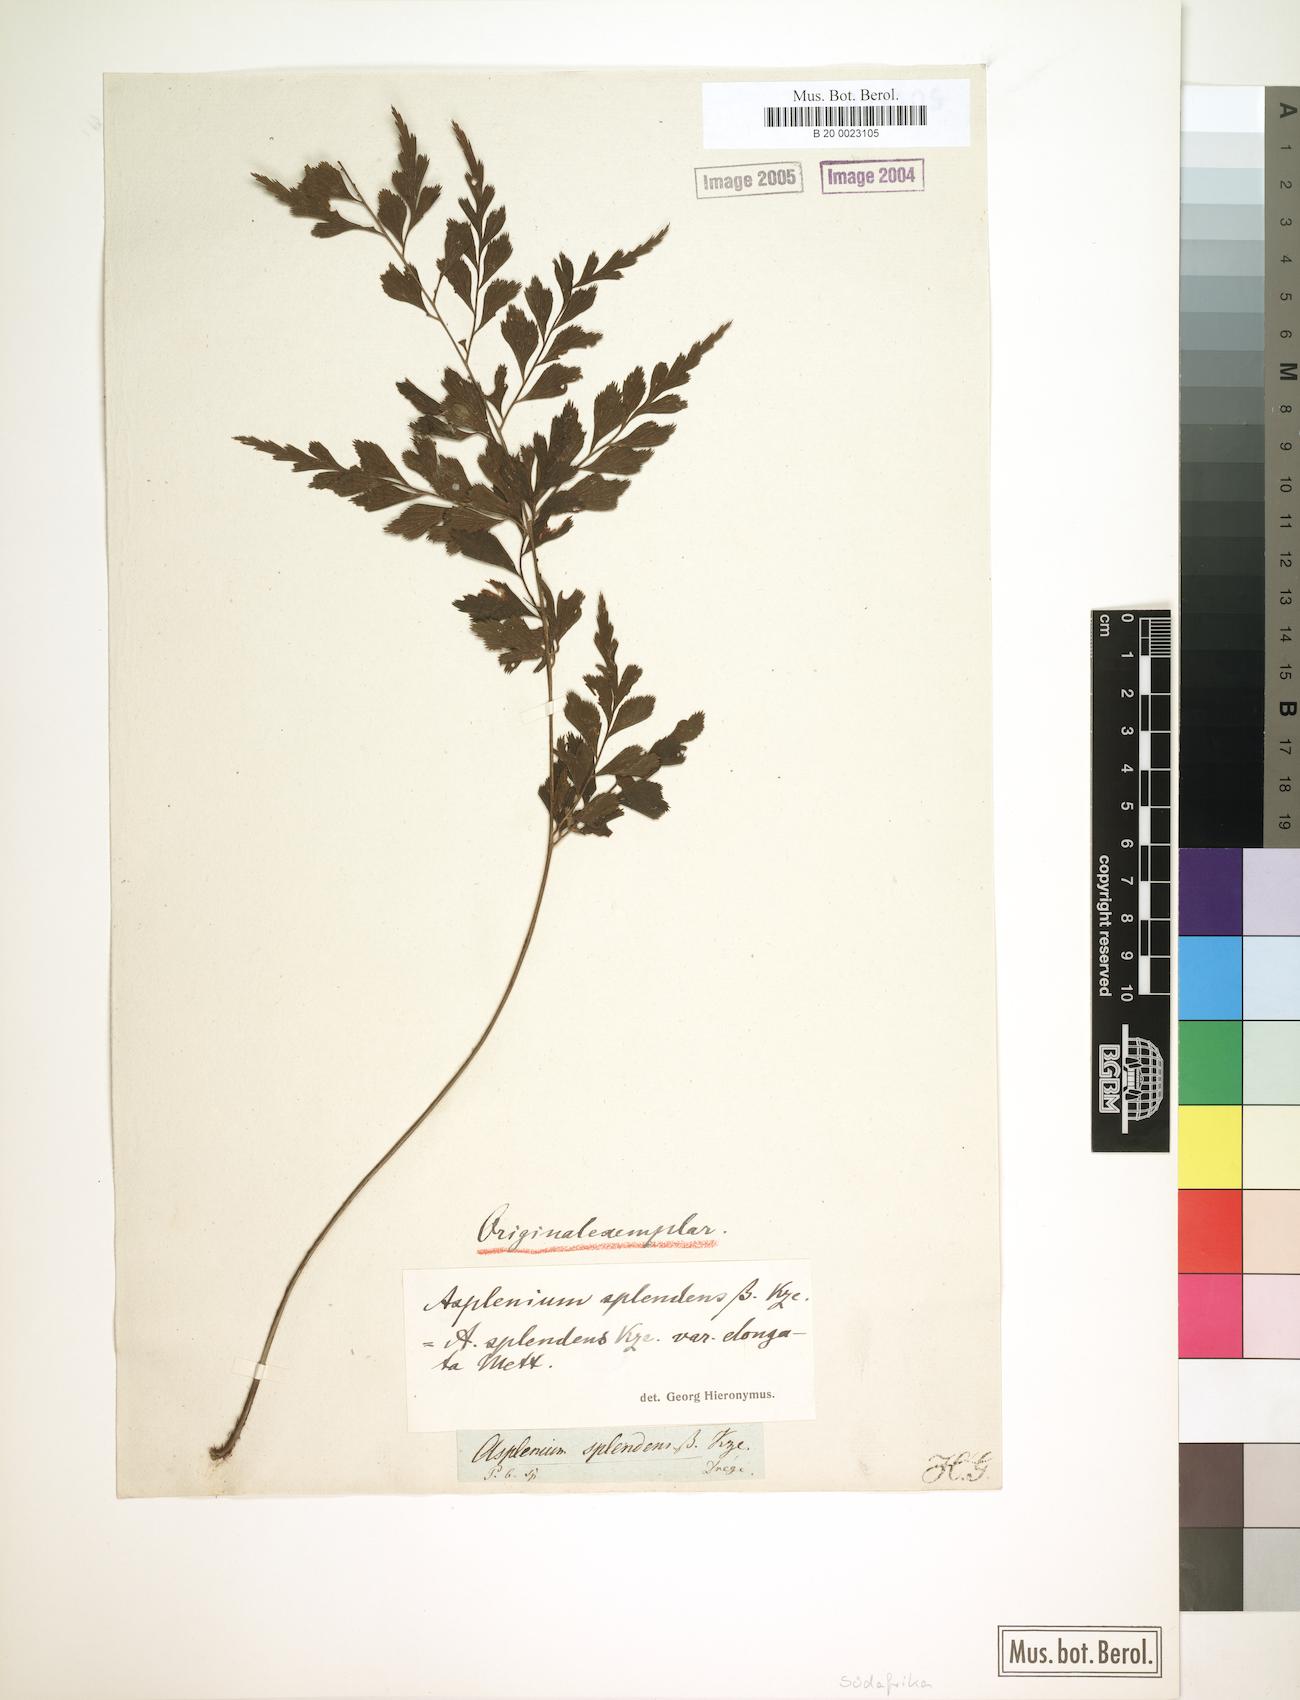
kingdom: Plantae
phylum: Tracheophyta
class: Polypodiopsida
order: Polypodiales
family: Aspleniaceae
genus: Asplenium
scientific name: Asplenium splendens
